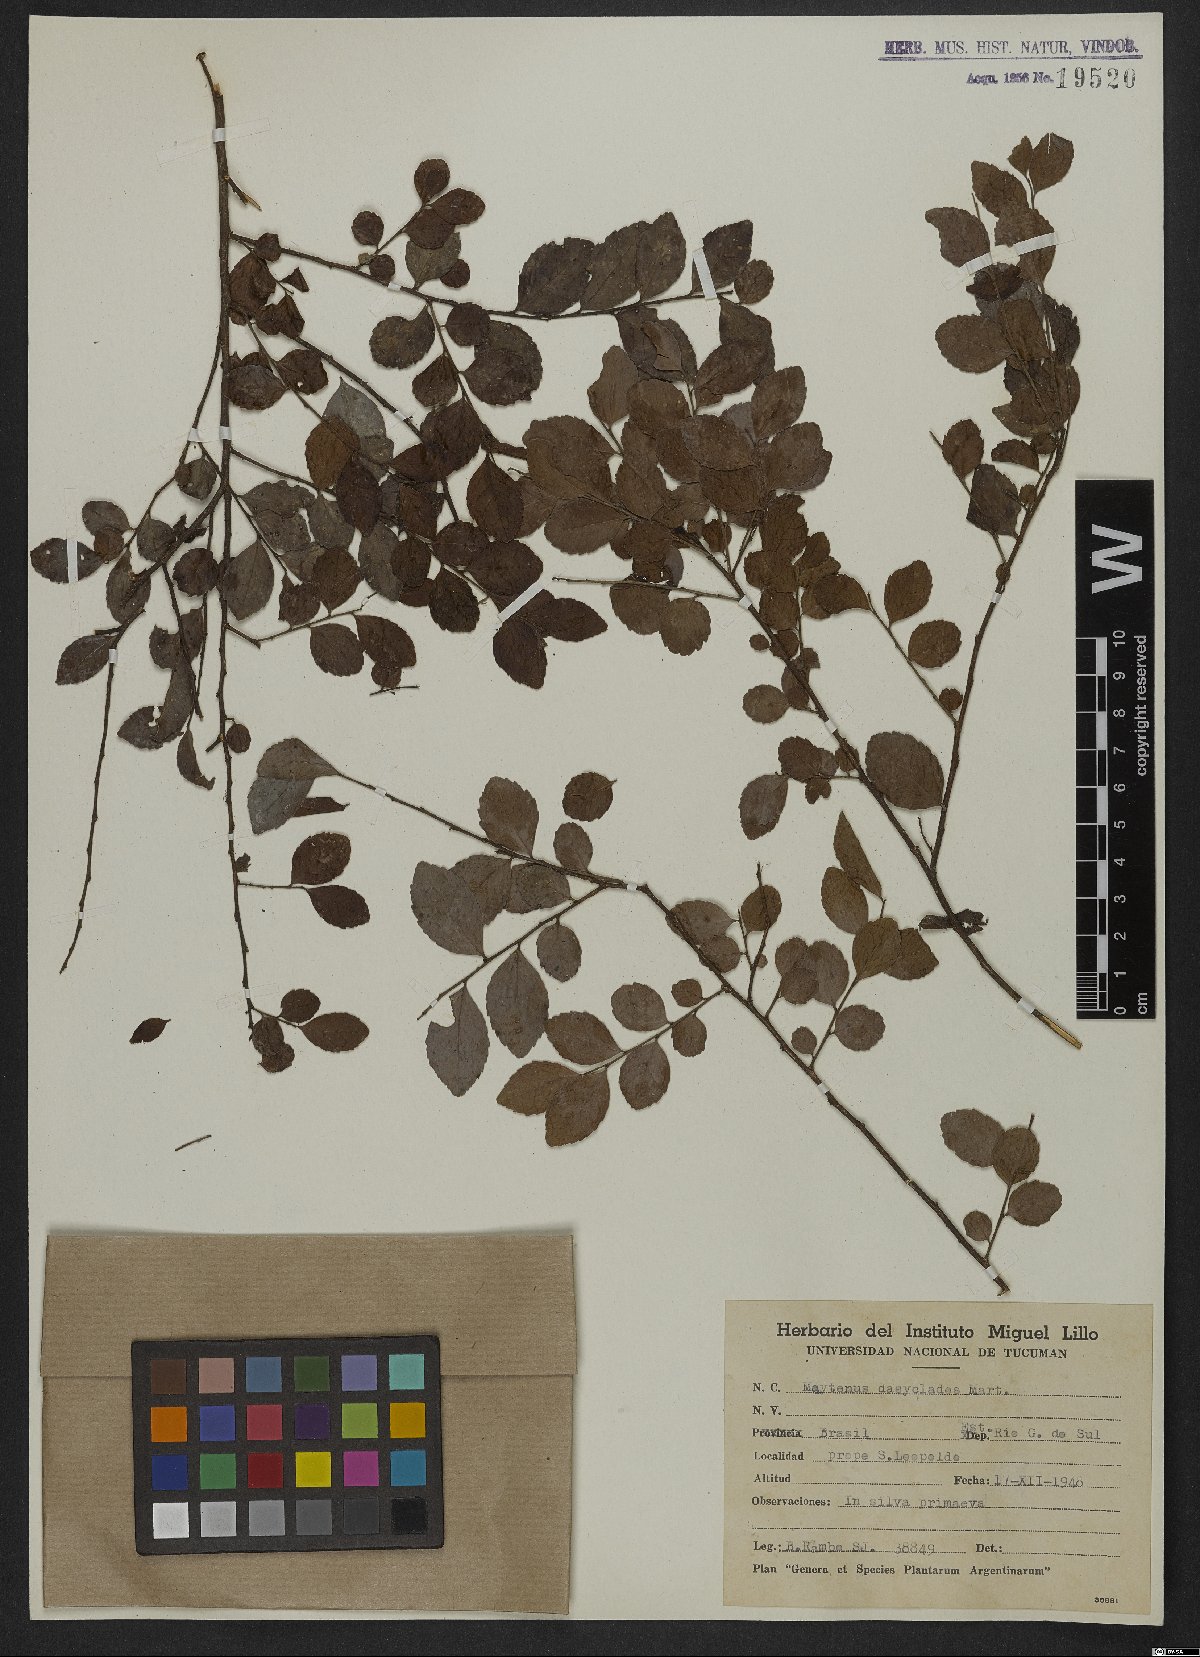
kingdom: Plantae
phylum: Tracheophyta
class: Magnoliopsida
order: Celastrales
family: Celastraceae
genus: Monteverdia
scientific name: Monteverdia dasyclados
